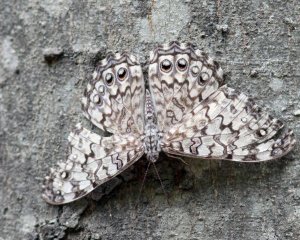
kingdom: Animalia
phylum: Arthropoda
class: Insecta
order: Lepidoptera
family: Nymphalidae
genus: Hamadryas
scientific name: Hamadryas februa
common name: Gray Cracker
